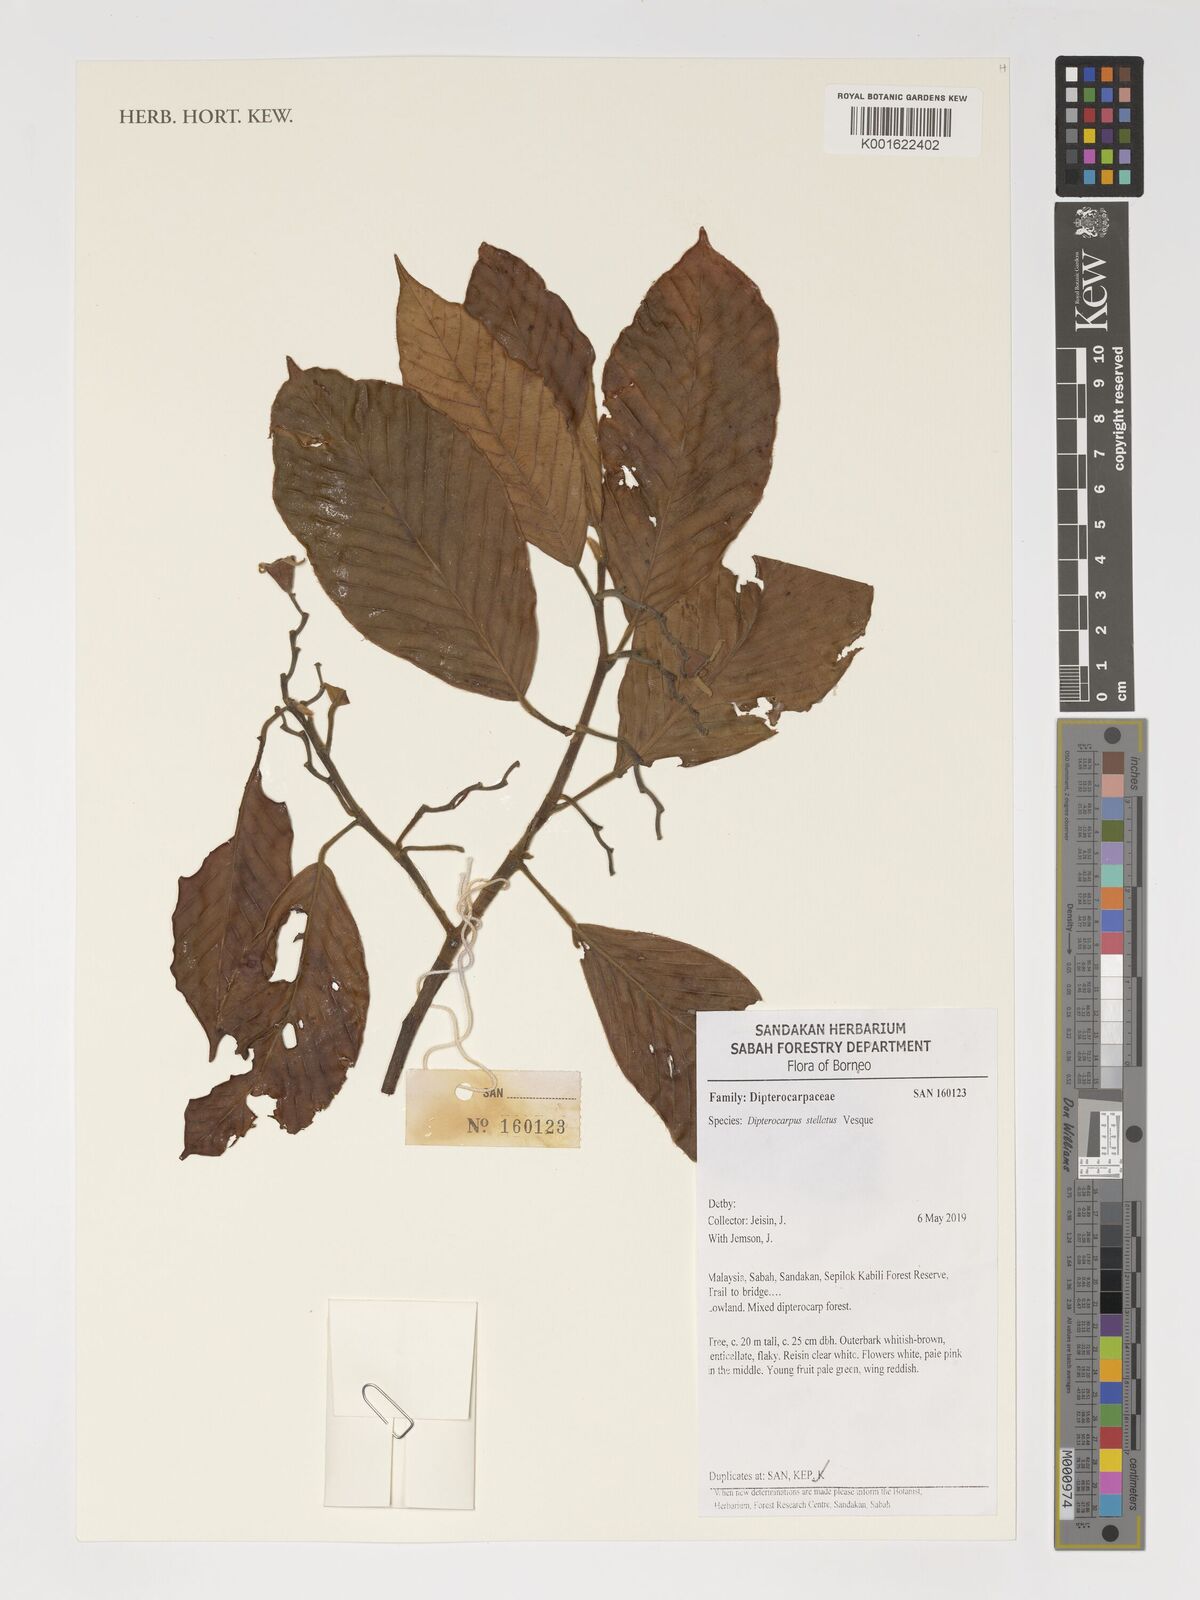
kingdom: Plantae
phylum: Tracheophyta
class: Magnoliopsida
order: Malvales
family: Dipterocarpaceae
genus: Dipterocarpus
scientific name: Dipterocarpus stellatus
